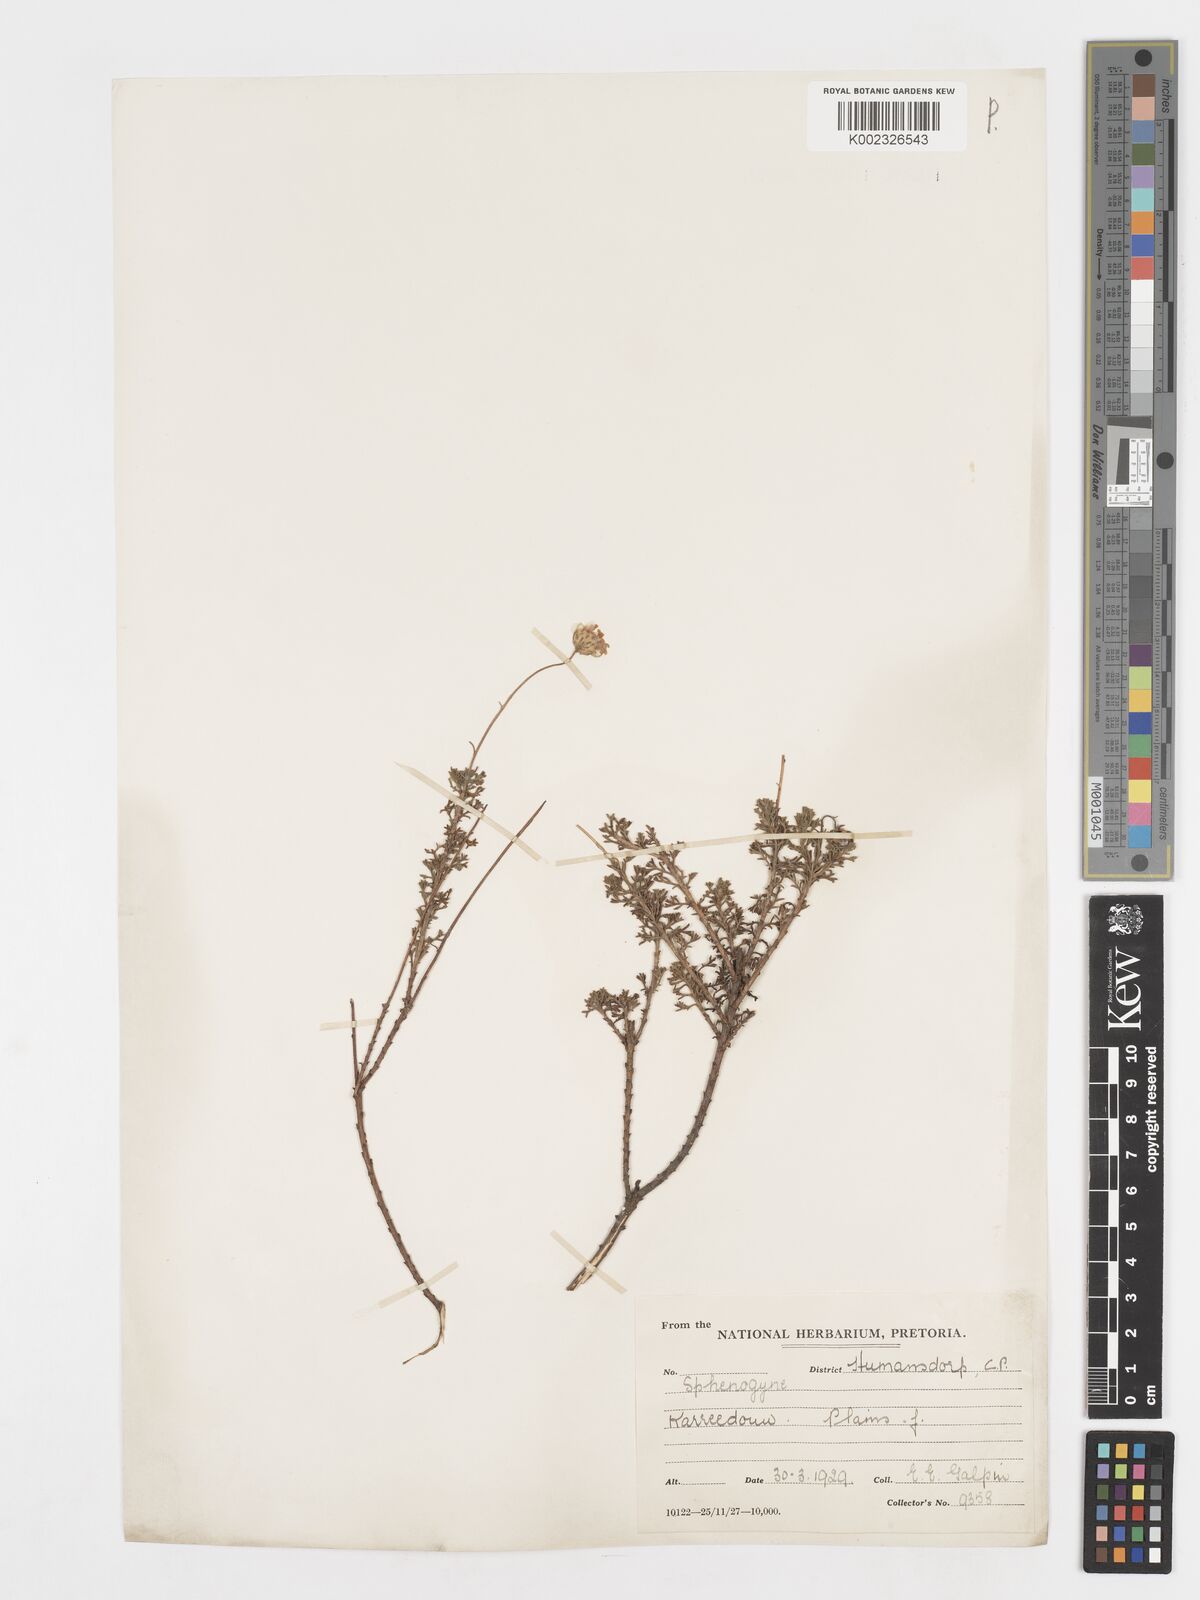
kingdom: Plantae
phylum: Tracheophyta
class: Magnoliopsida
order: Asterales
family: Asteraceae
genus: Ursinia
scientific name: Ursinia anethoides
